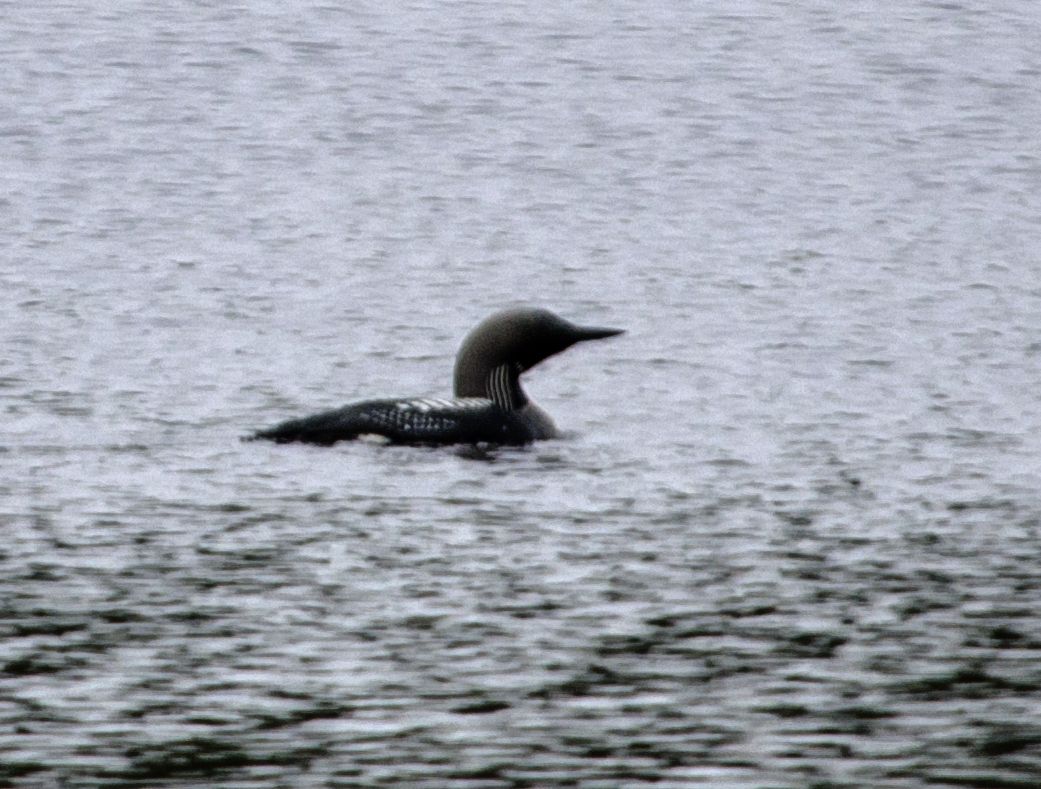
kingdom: Animalia
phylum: Chordata
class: Aves
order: Gaviiformes
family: Gaviidae
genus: Gavia
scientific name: Gavia arctica
